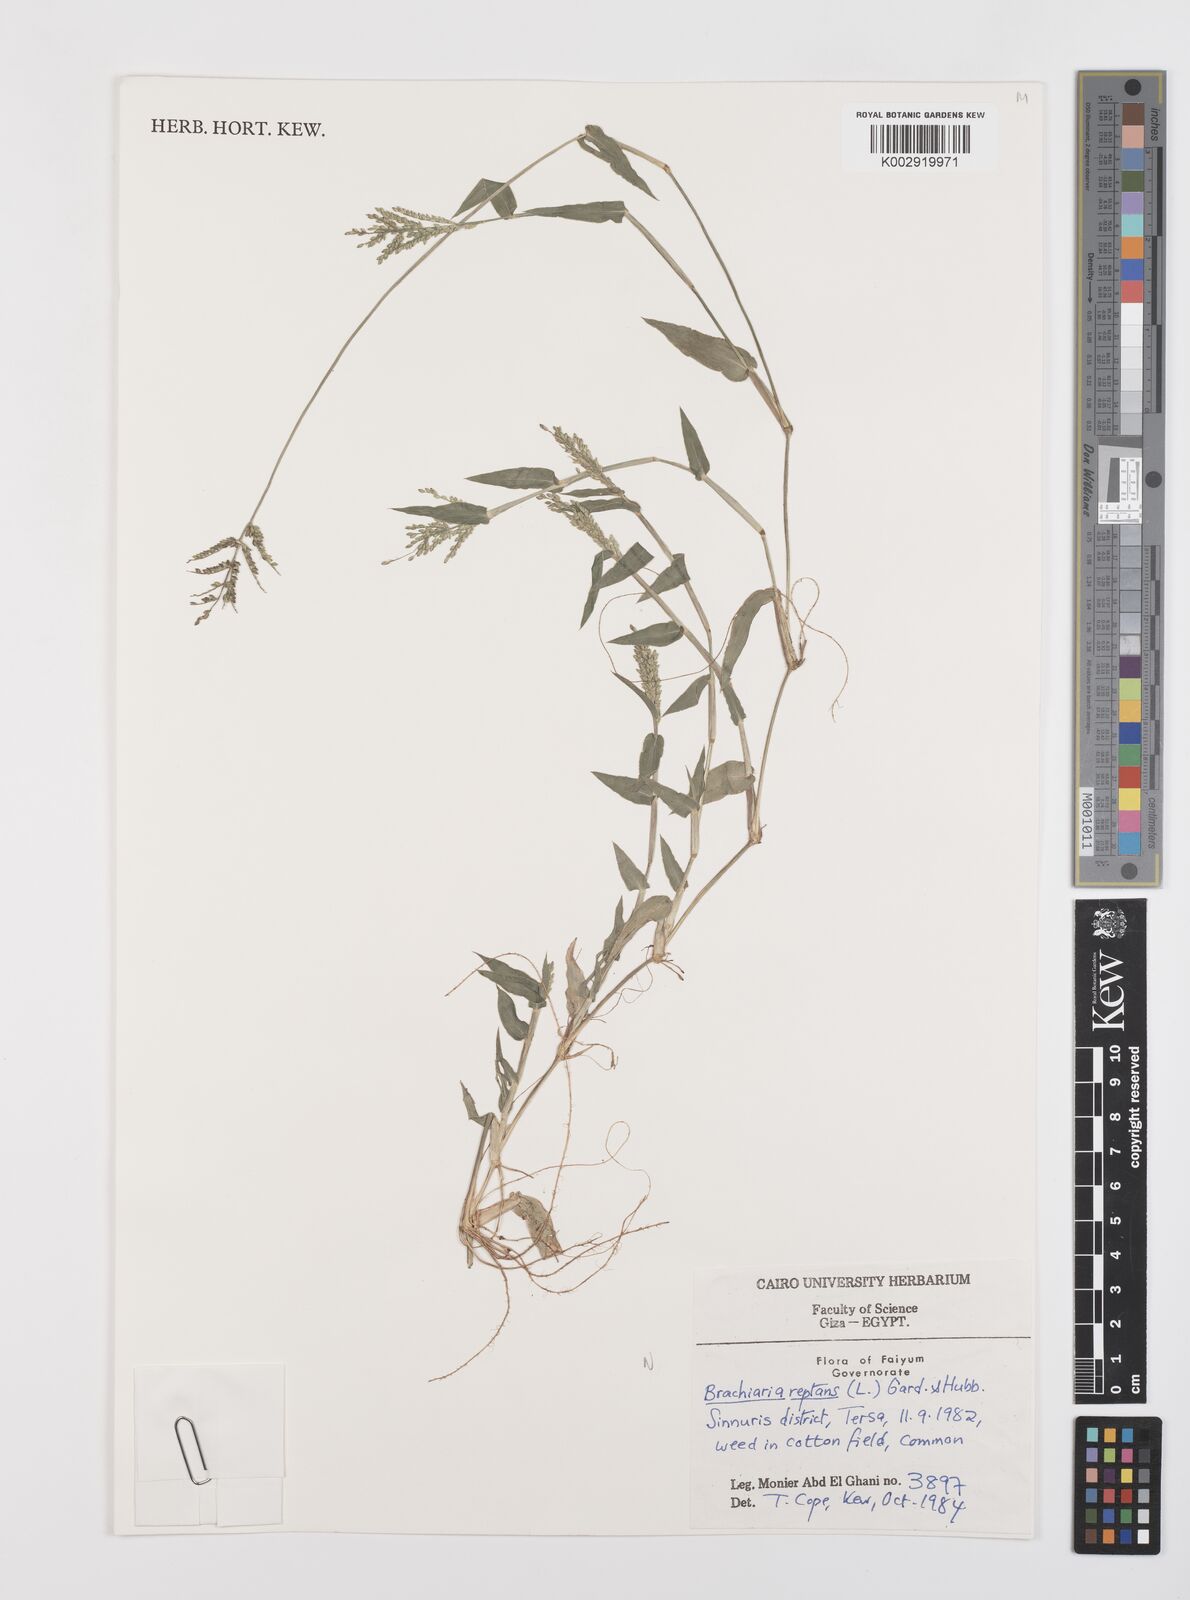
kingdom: Plantae
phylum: Tracheophyta
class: Liliopsida
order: Poales
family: Poaceae
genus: Urochloa
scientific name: Urochloa reptans
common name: Sprawling signalgrass
